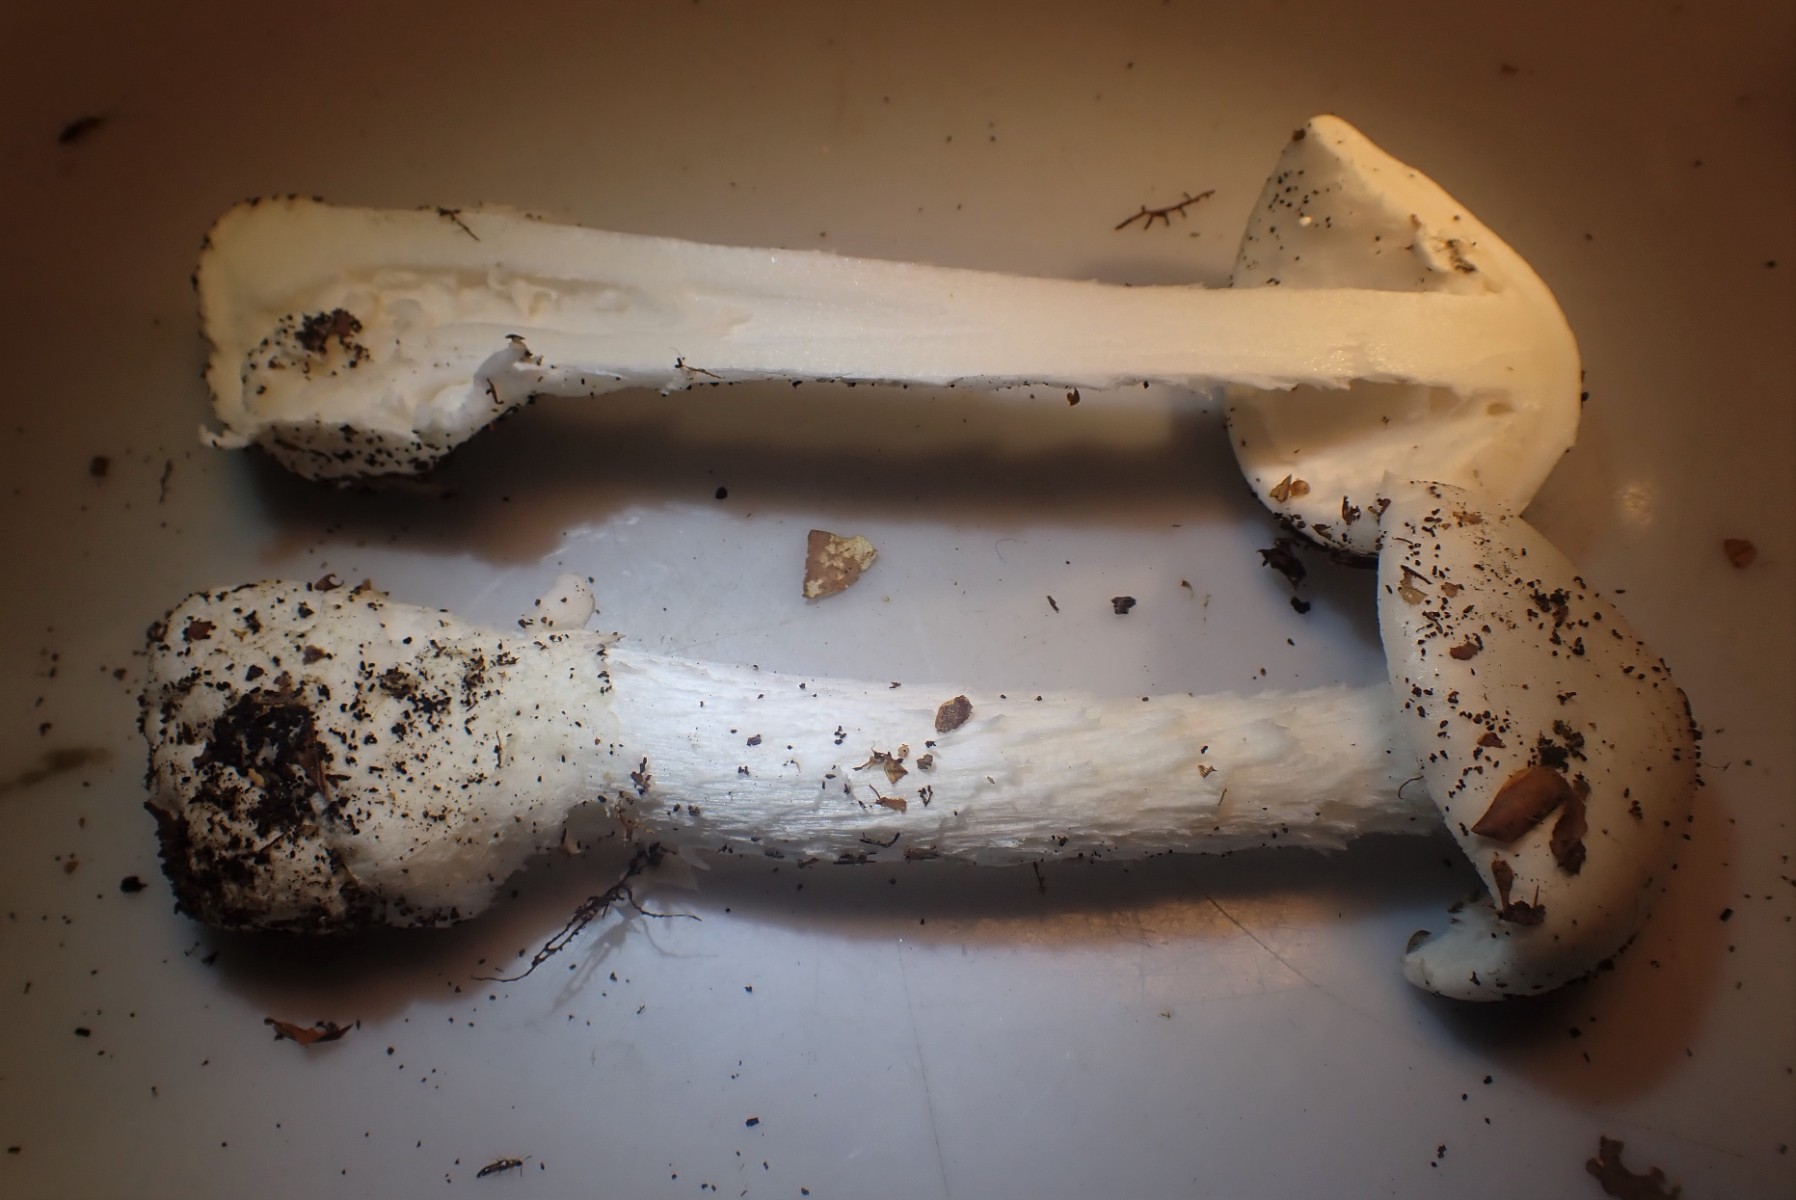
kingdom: Fungi
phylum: Basidiomycota
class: Agaricomycetes
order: Agaricales
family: Amanitaceae
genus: Amanita
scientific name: Amanita virosa
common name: snehvid fluesvamp
